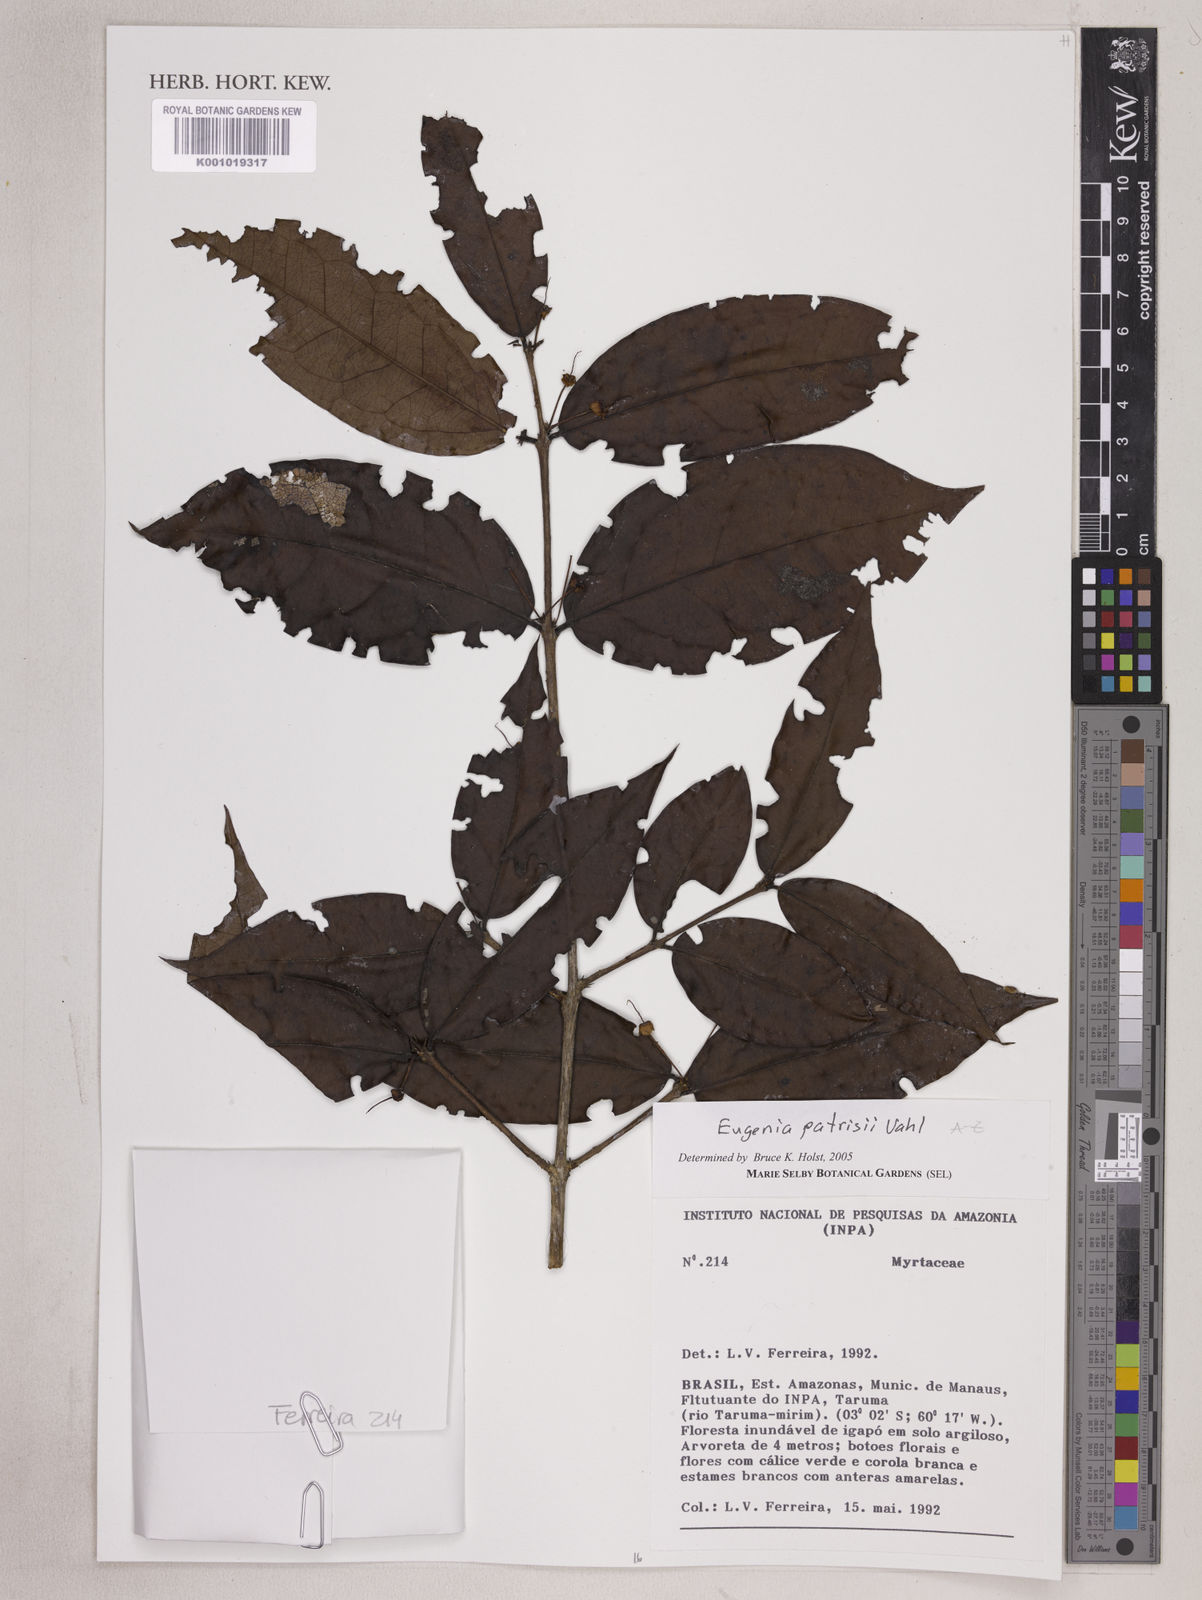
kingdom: Plantae
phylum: Tracheophyta
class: Magnoliopsida
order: Myrtales
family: Myrtaceae
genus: Eugenia
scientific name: Eugenia patrisii
